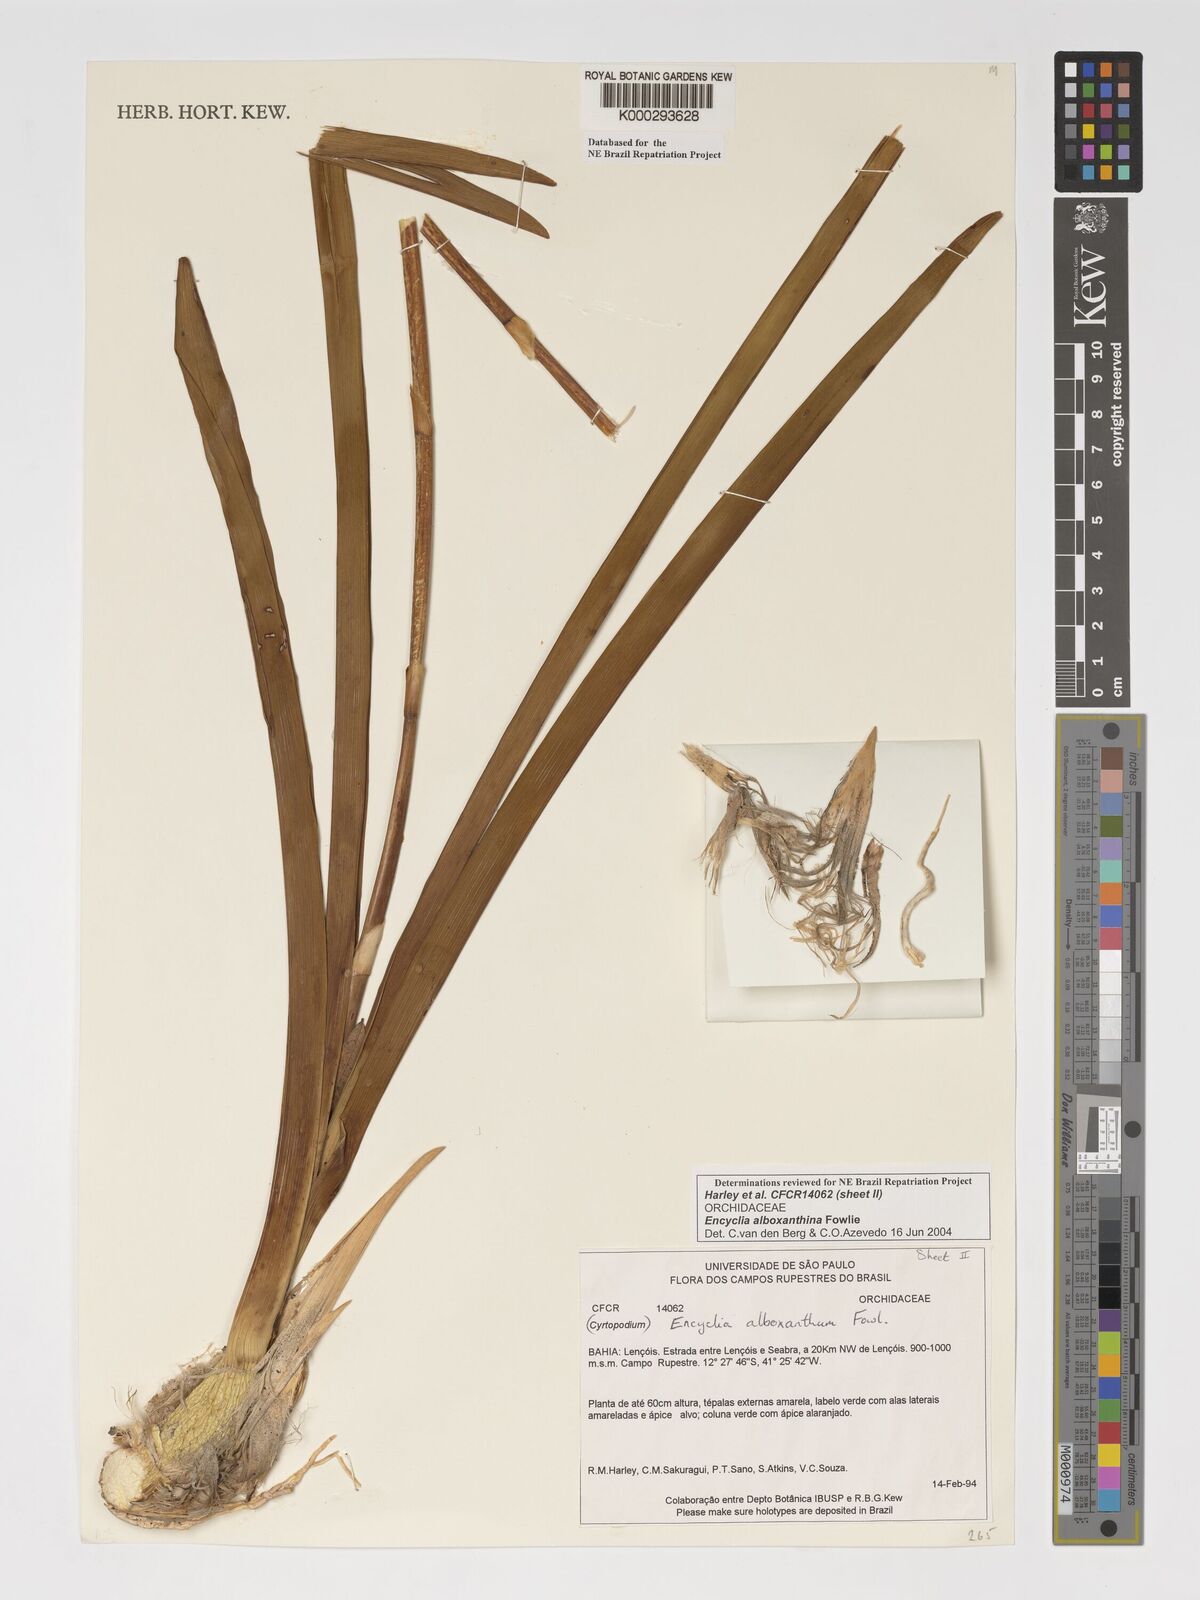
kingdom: Plantae
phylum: Tracheophyta
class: Liliopsida
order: Asparagales
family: Orchidaceae
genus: Encyclia
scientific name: Encyclia alboxanthina
